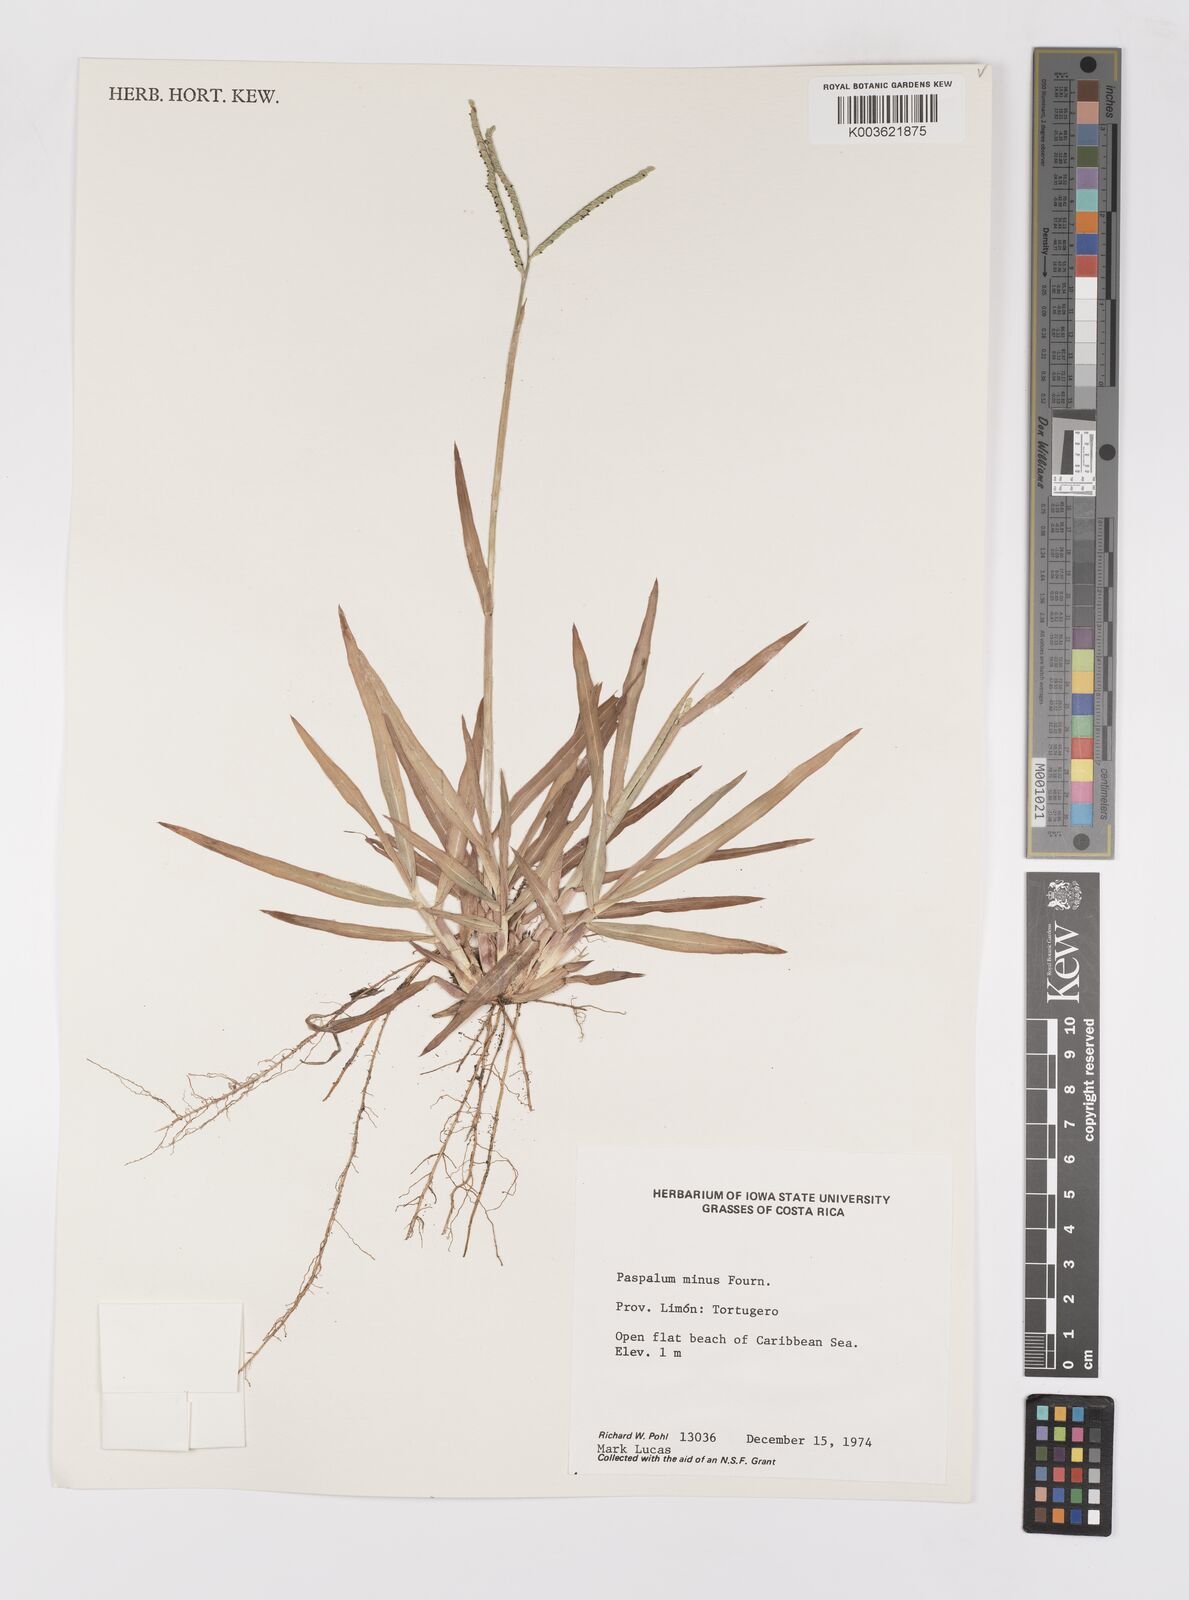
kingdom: Plantae
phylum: Tracheophyta
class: Liliopsida
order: Poales
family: Poaceae
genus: Paspalum
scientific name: Paspalum minus
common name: Matted paspalum
